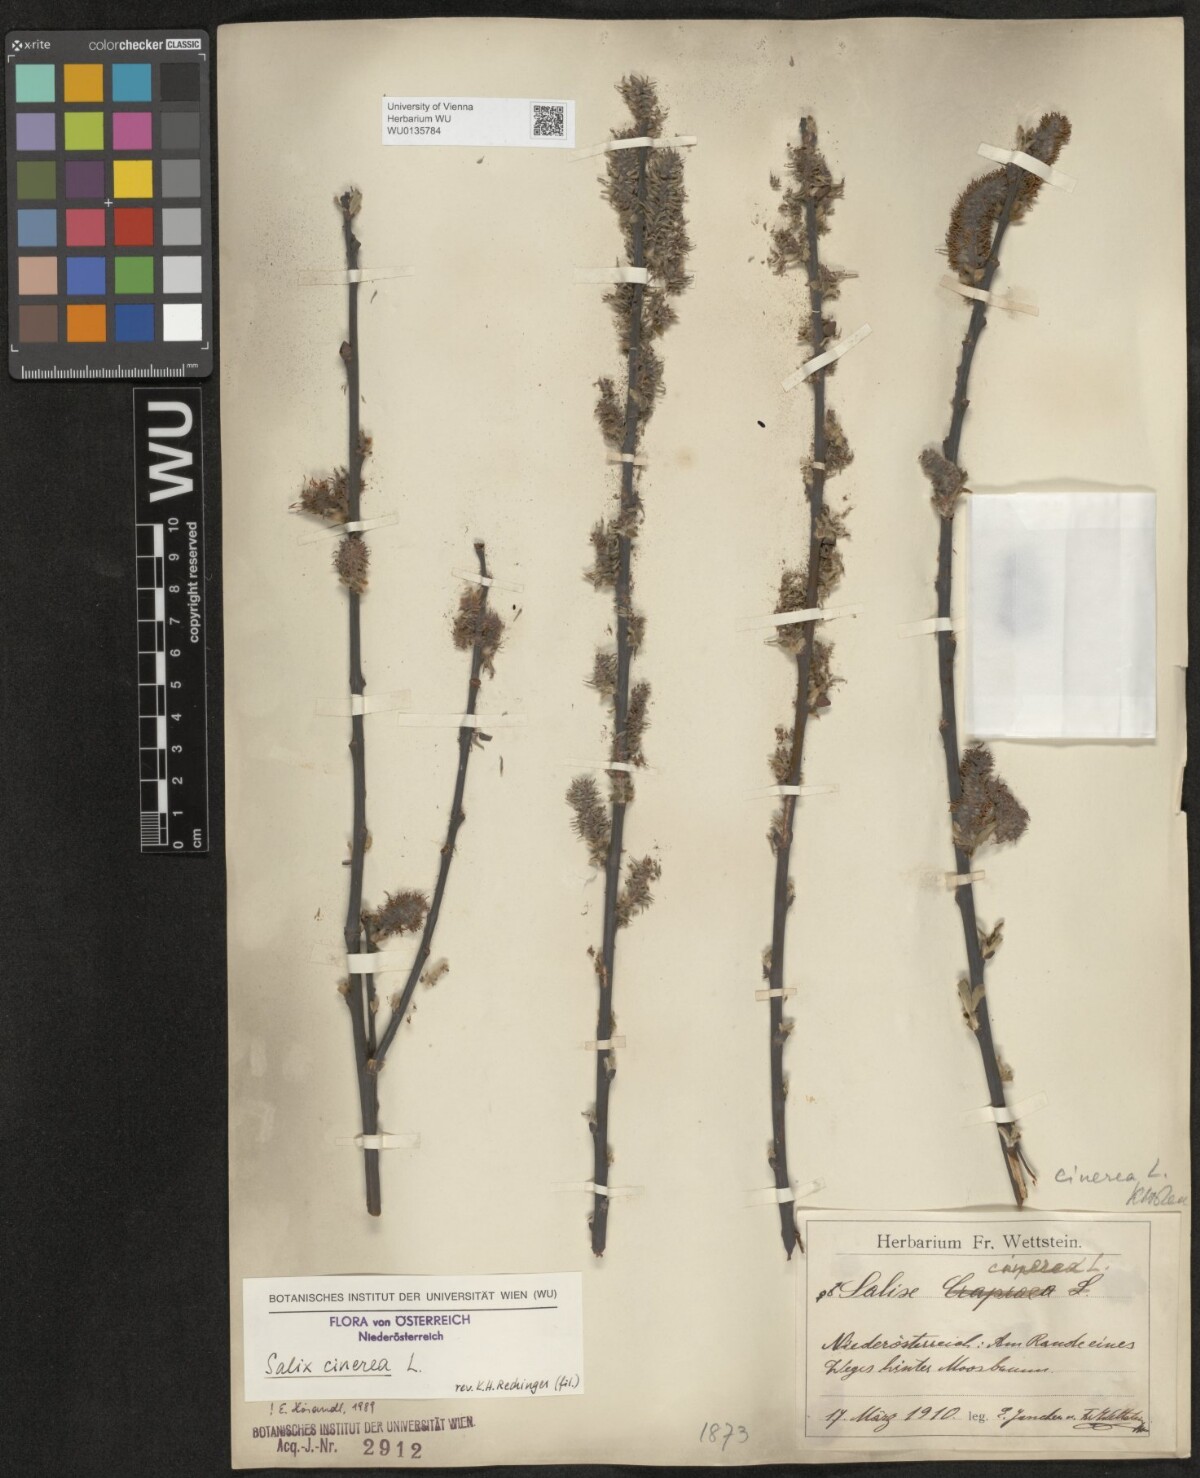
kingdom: Plantae
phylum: Tracheophyta
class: Magnoliopsida
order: Malpighiales
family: Salicaceae
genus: Salix
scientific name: Salix cinerea
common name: Common sallow
